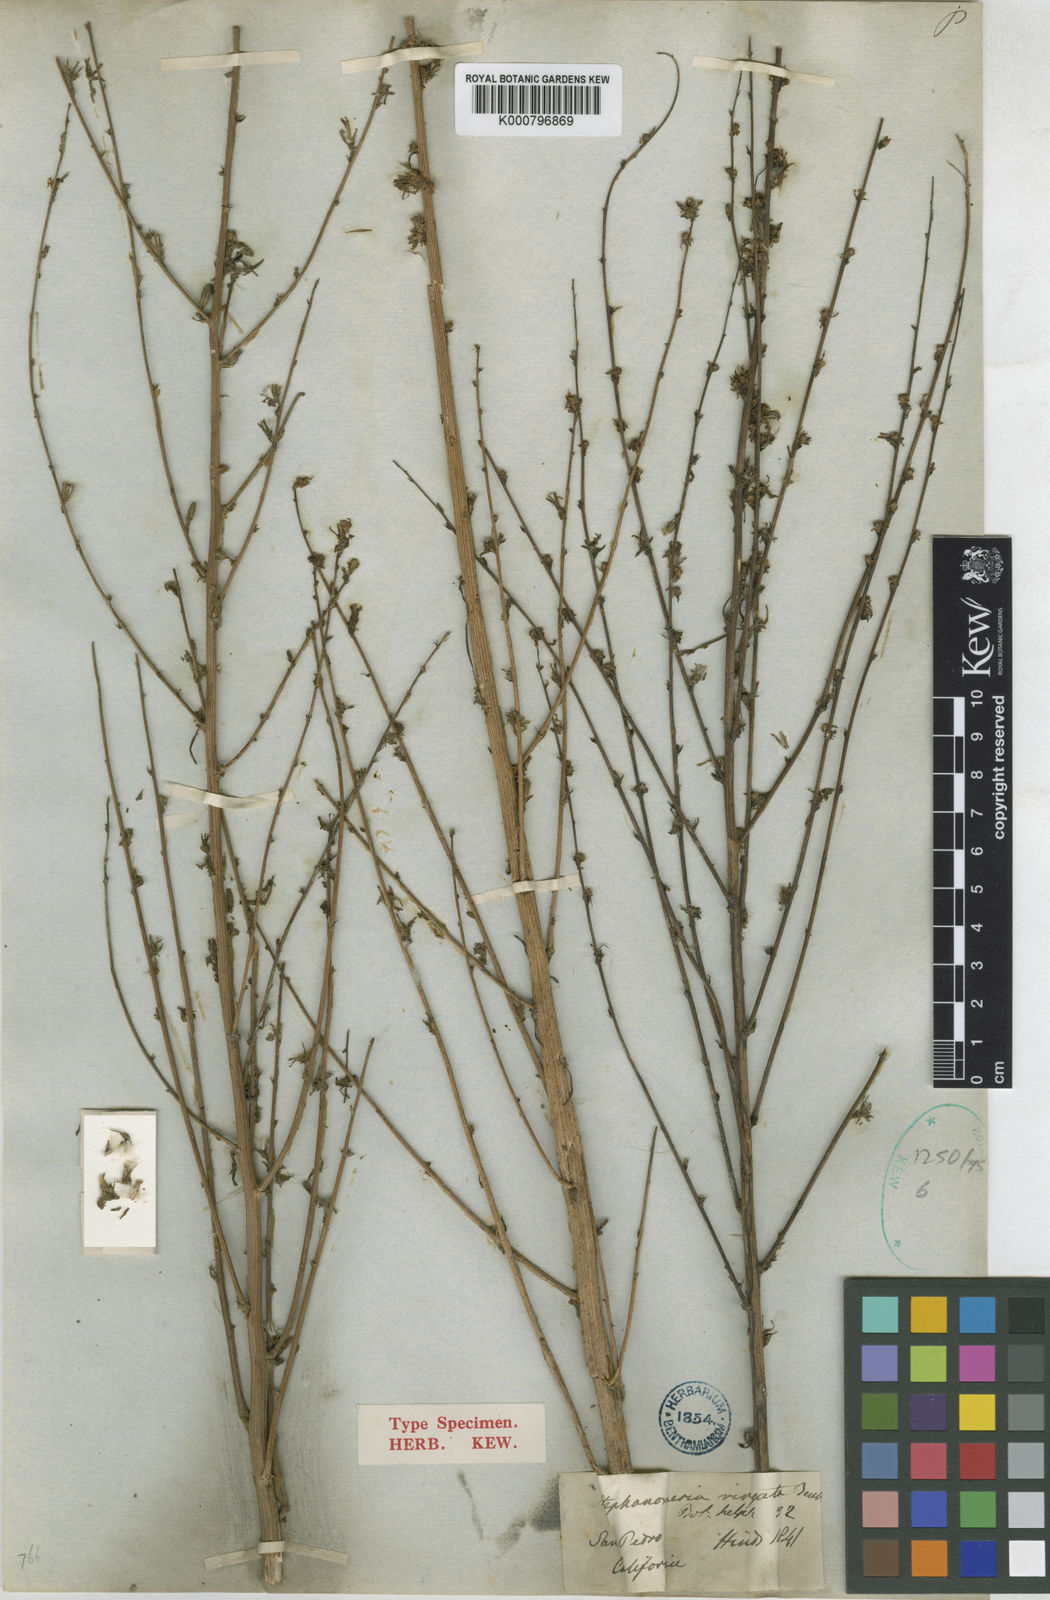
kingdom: Plantae
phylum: Tracheophyta
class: Magnoliopsida
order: Asterales
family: Asteraceae
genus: Stephanomeria
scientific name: Stephanomeria virgata
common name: Virgate wirelettuce
